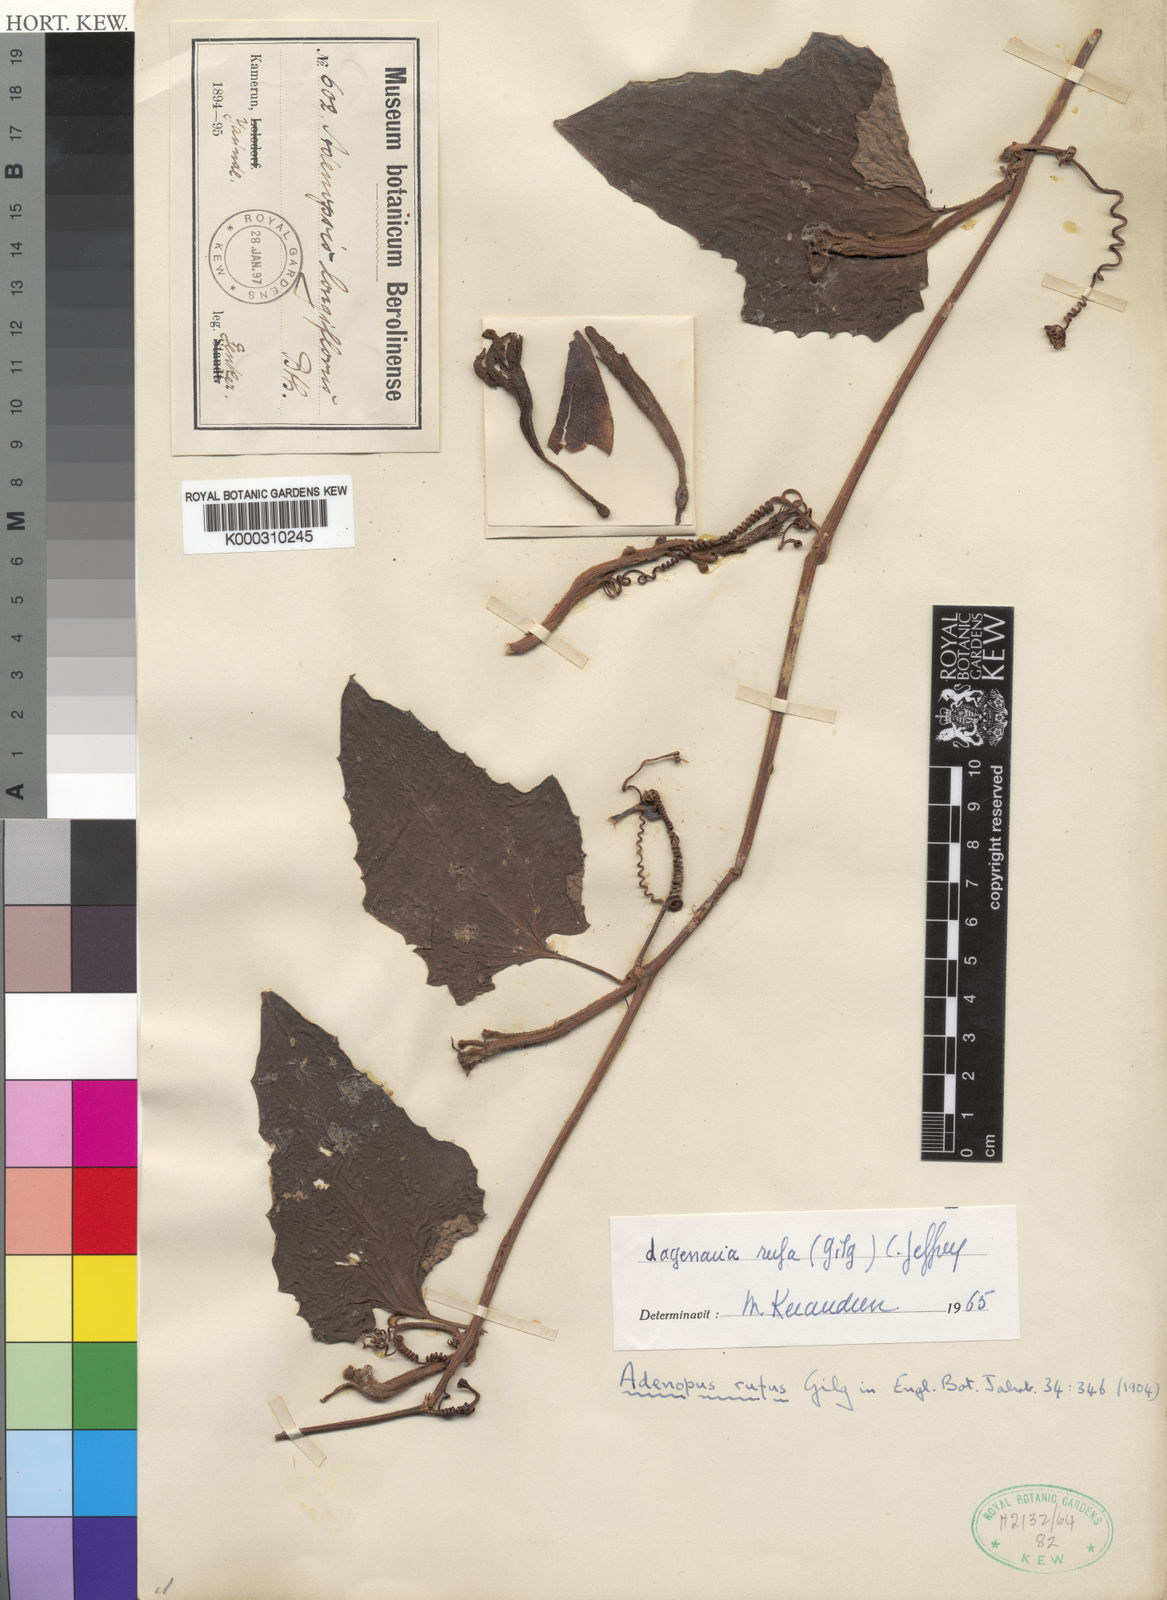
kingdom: Plantae
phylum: Tracheophyta
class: Magnoliopsida
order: Cucurbitales
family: Cucurbitaceae
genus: Lagenaria
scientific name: Lagenaria rufa
